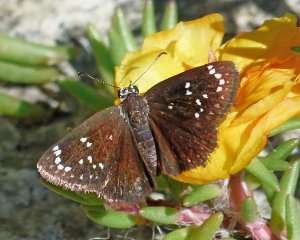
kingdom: Animalia
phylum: Arthropoda
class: Insecta
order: Lepidoptera
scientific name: Lepidoptera
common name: Butterflies
